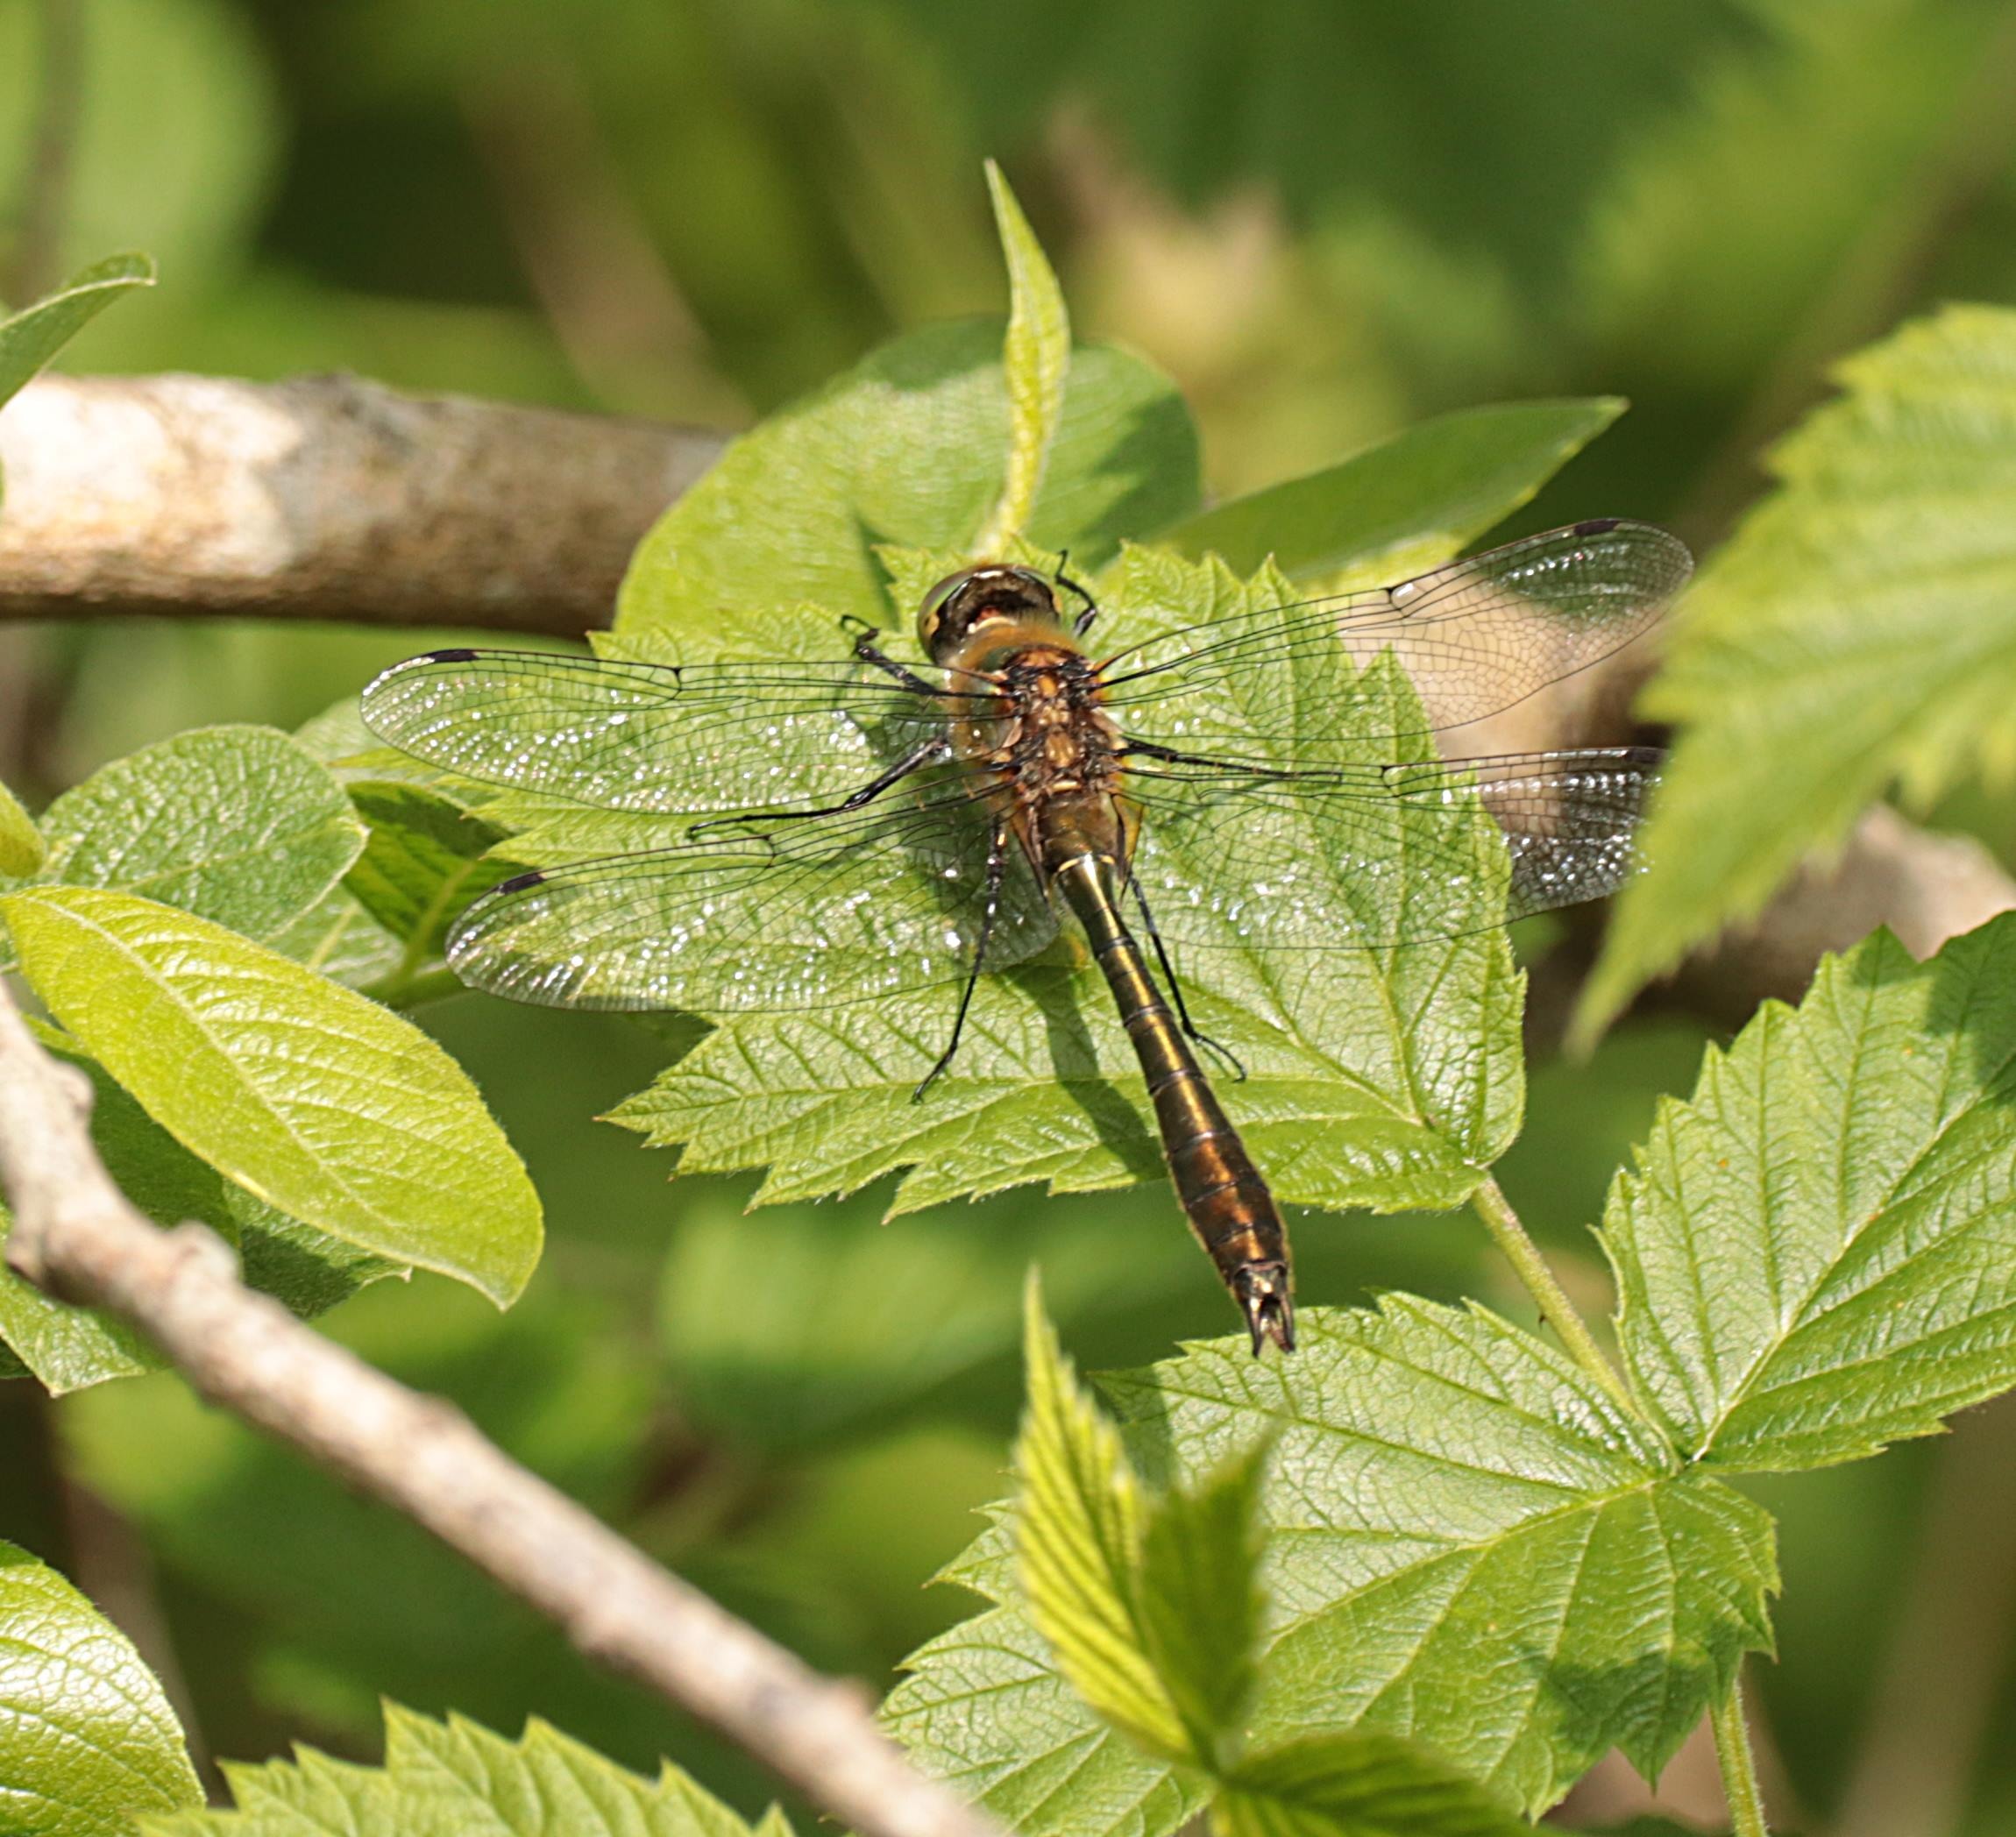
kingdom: Animalia
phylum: Arthropoda
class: Insecta
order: Odonata
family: Corduliidae
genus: Cordulia
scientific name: Cordulia aenea
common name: Grøn smaragdlibel
